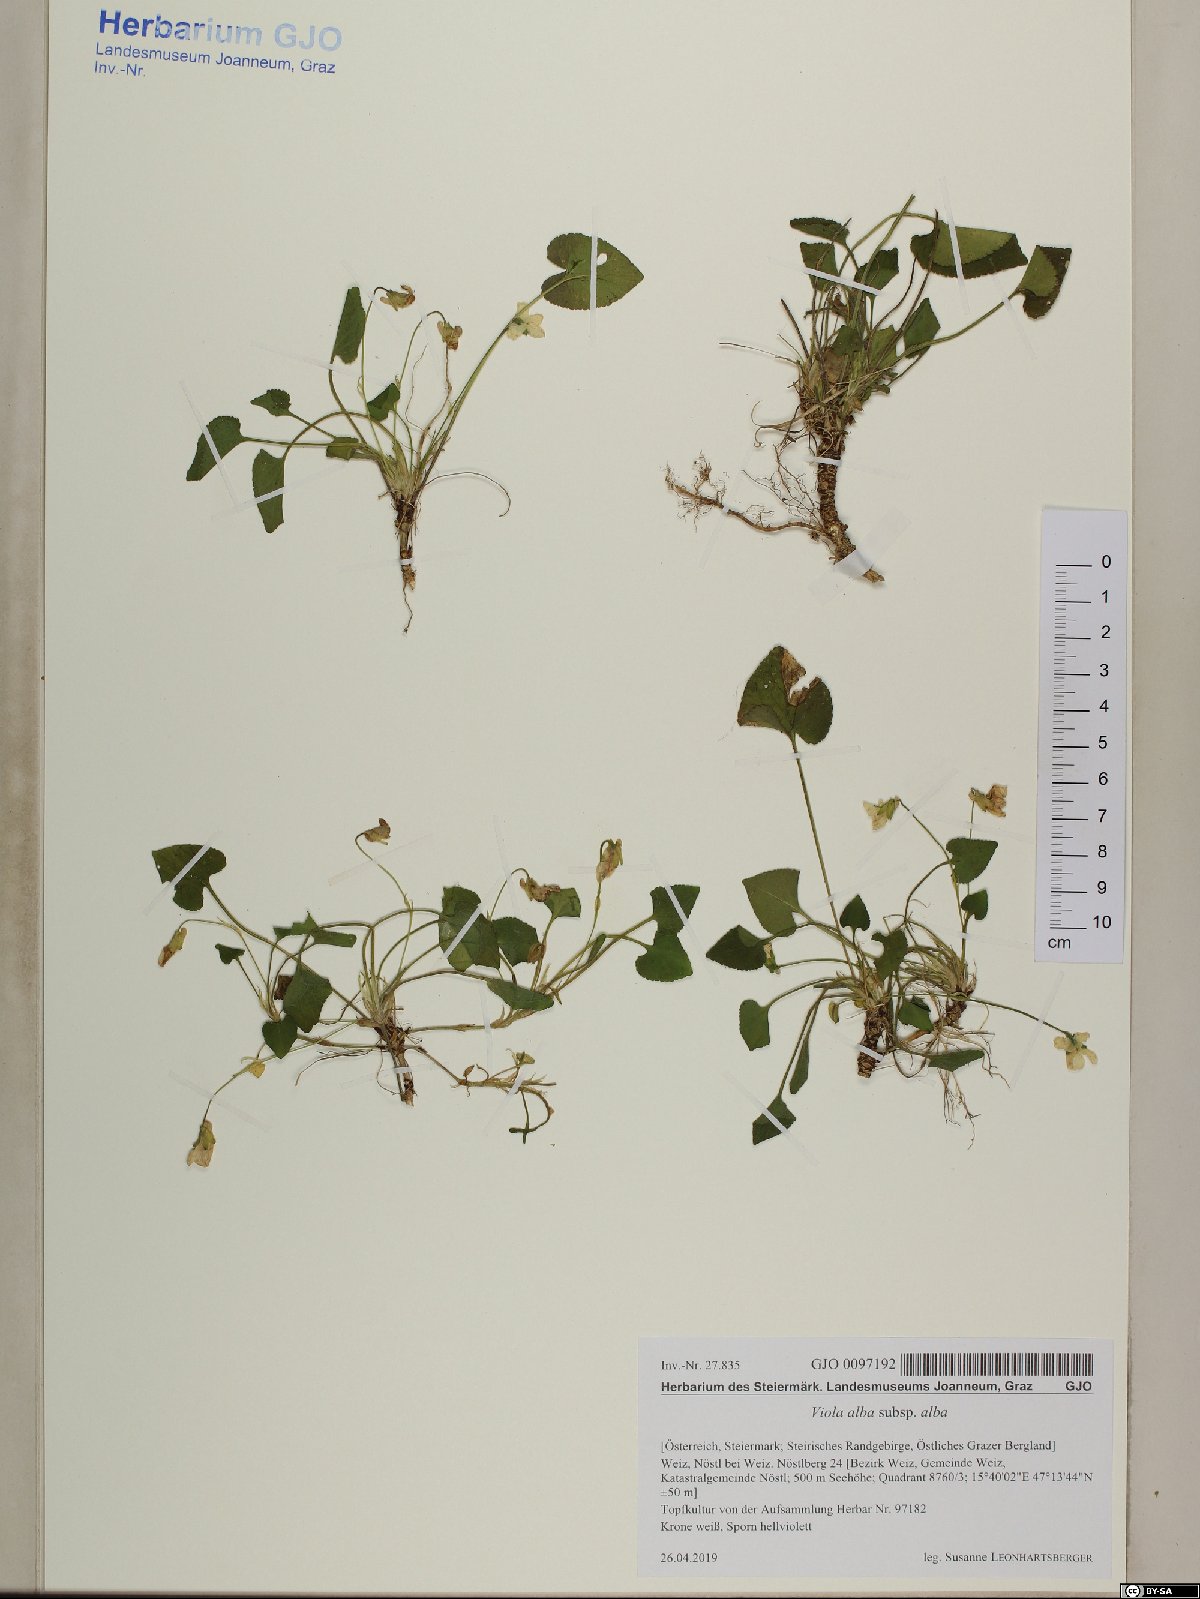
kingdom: Plantae
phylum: Tracheophyta
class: Magnoliopsida
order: Malpighiales
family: Violaceae
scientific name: Violaceae
